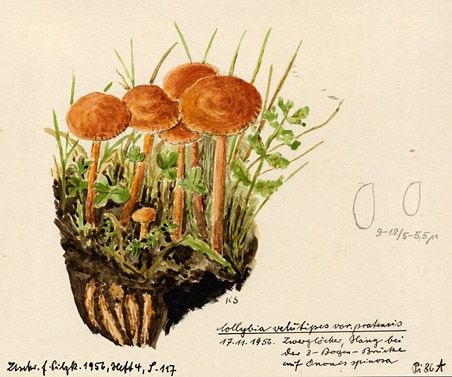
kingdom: Fungi
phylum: Basidiomycota
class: Agaricomycetes
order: Agaricales
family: Physalacriaceae
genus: Flammulina
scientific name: Flammulina ononidis
